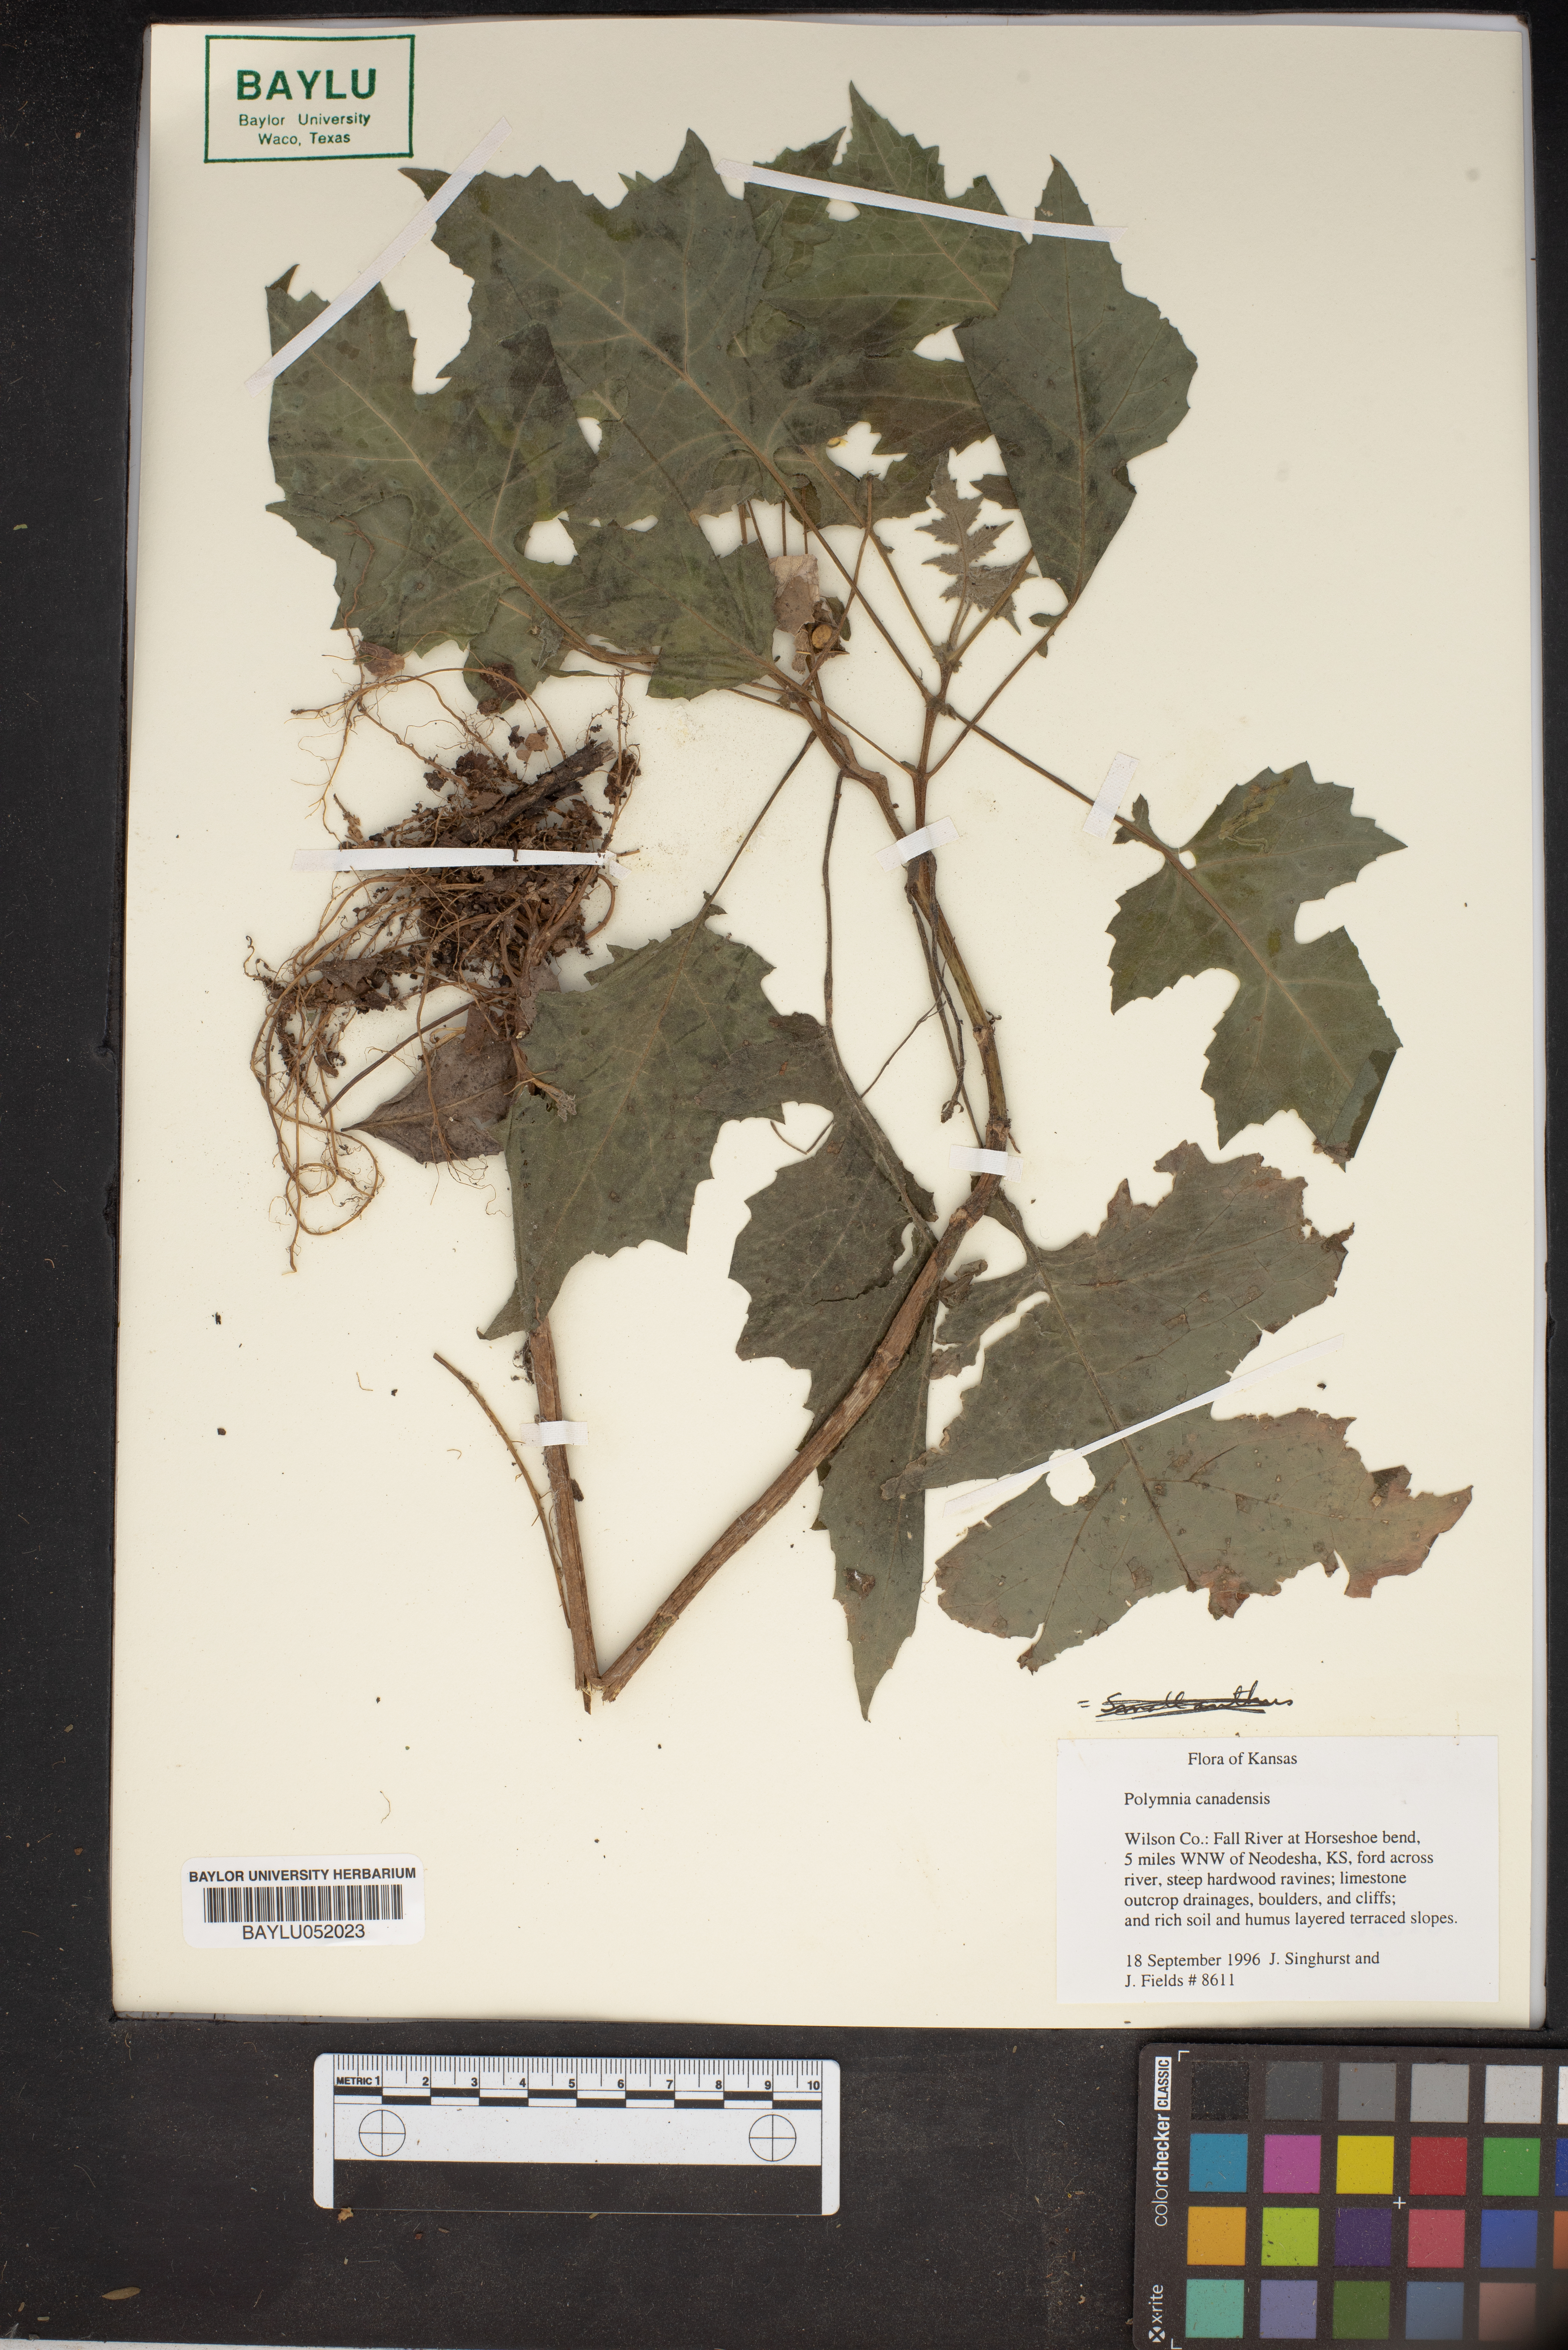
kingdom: Plantae
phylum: Tracheophyta
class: Magnoliopsida
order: Asterales
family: Asteraceae
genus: Polymnia
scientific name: Polymnia canadensis
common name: Pale-flowered leafcup
